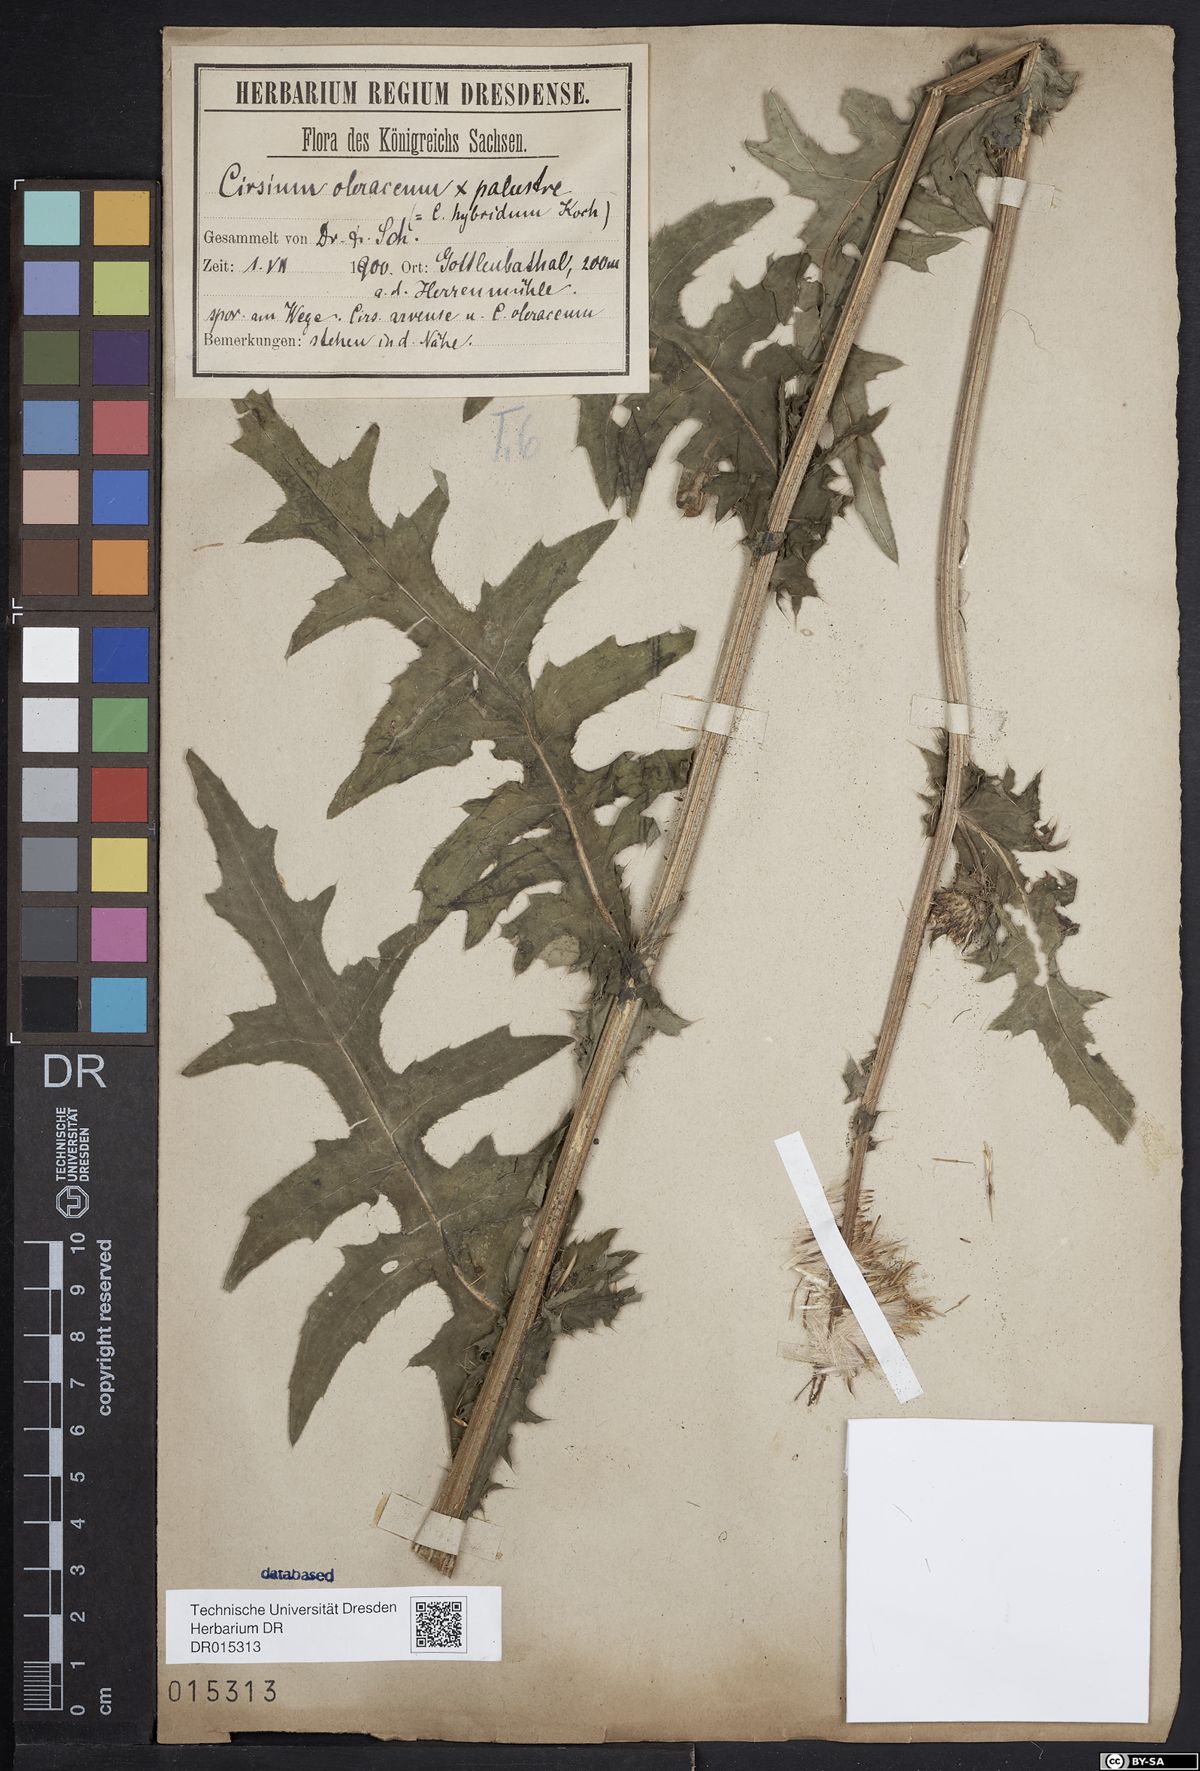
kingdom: Plantae
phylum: Tracheophyta
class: Magnoliopsida
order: Asterales
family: Asteraceae
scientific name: Asteraceae
